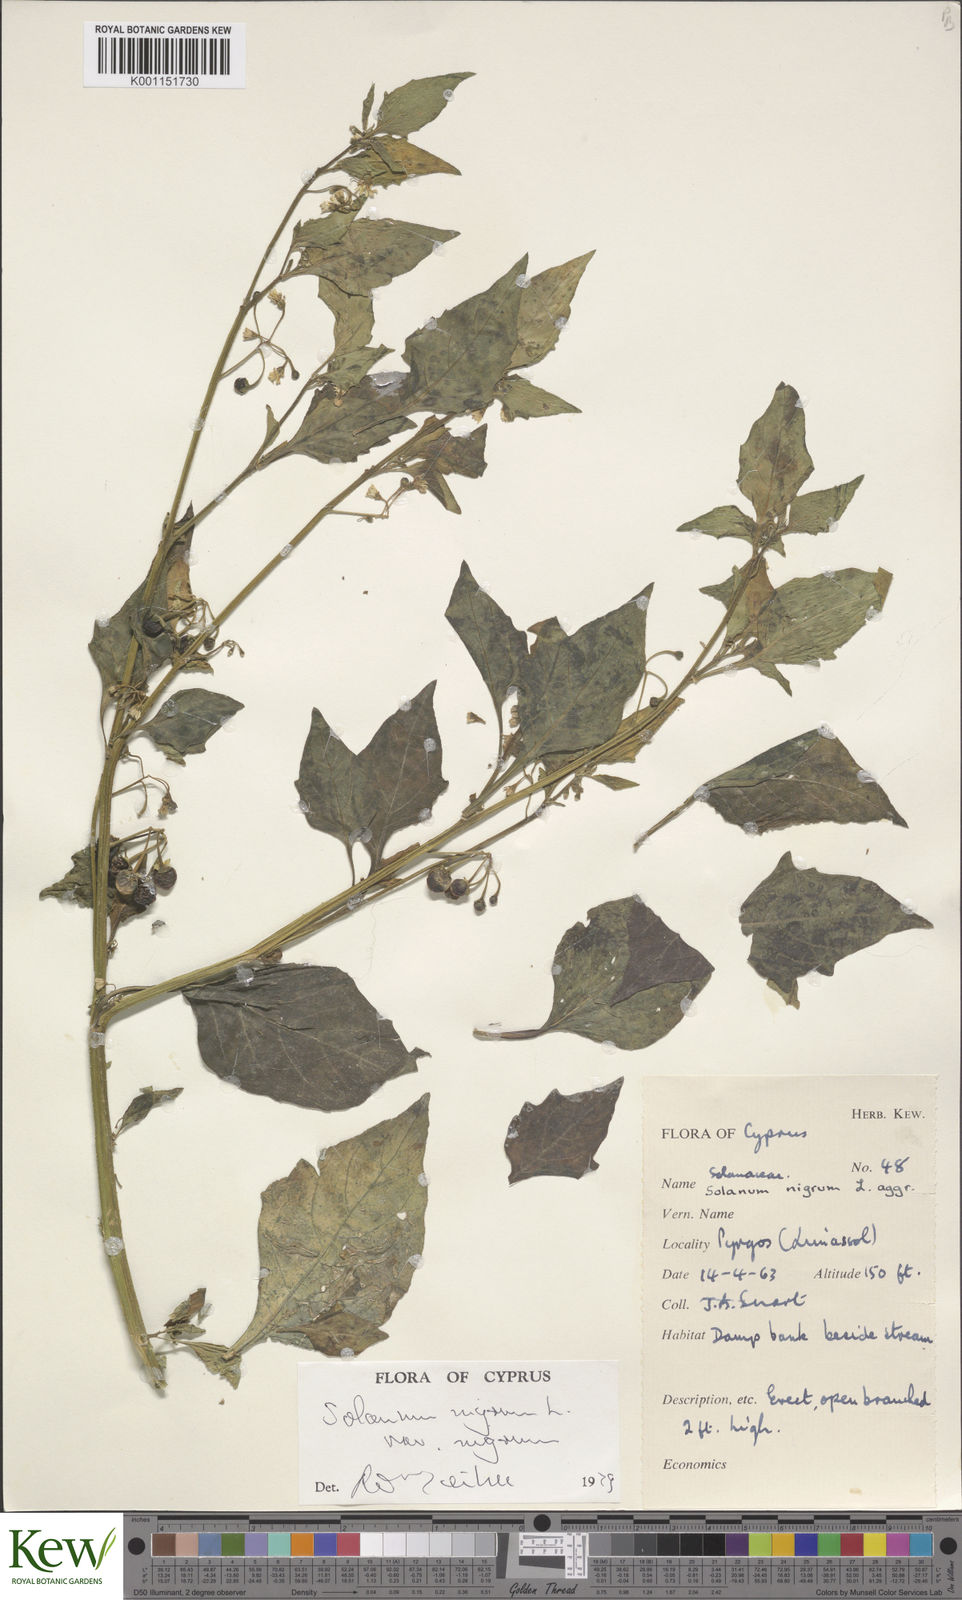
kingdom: Plantae
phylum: Tracheophyta
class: Magnoliopsida
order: Solanales
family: Solanaceae
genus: Solanum
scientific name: Solanum nigrum
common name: Black nightshade
